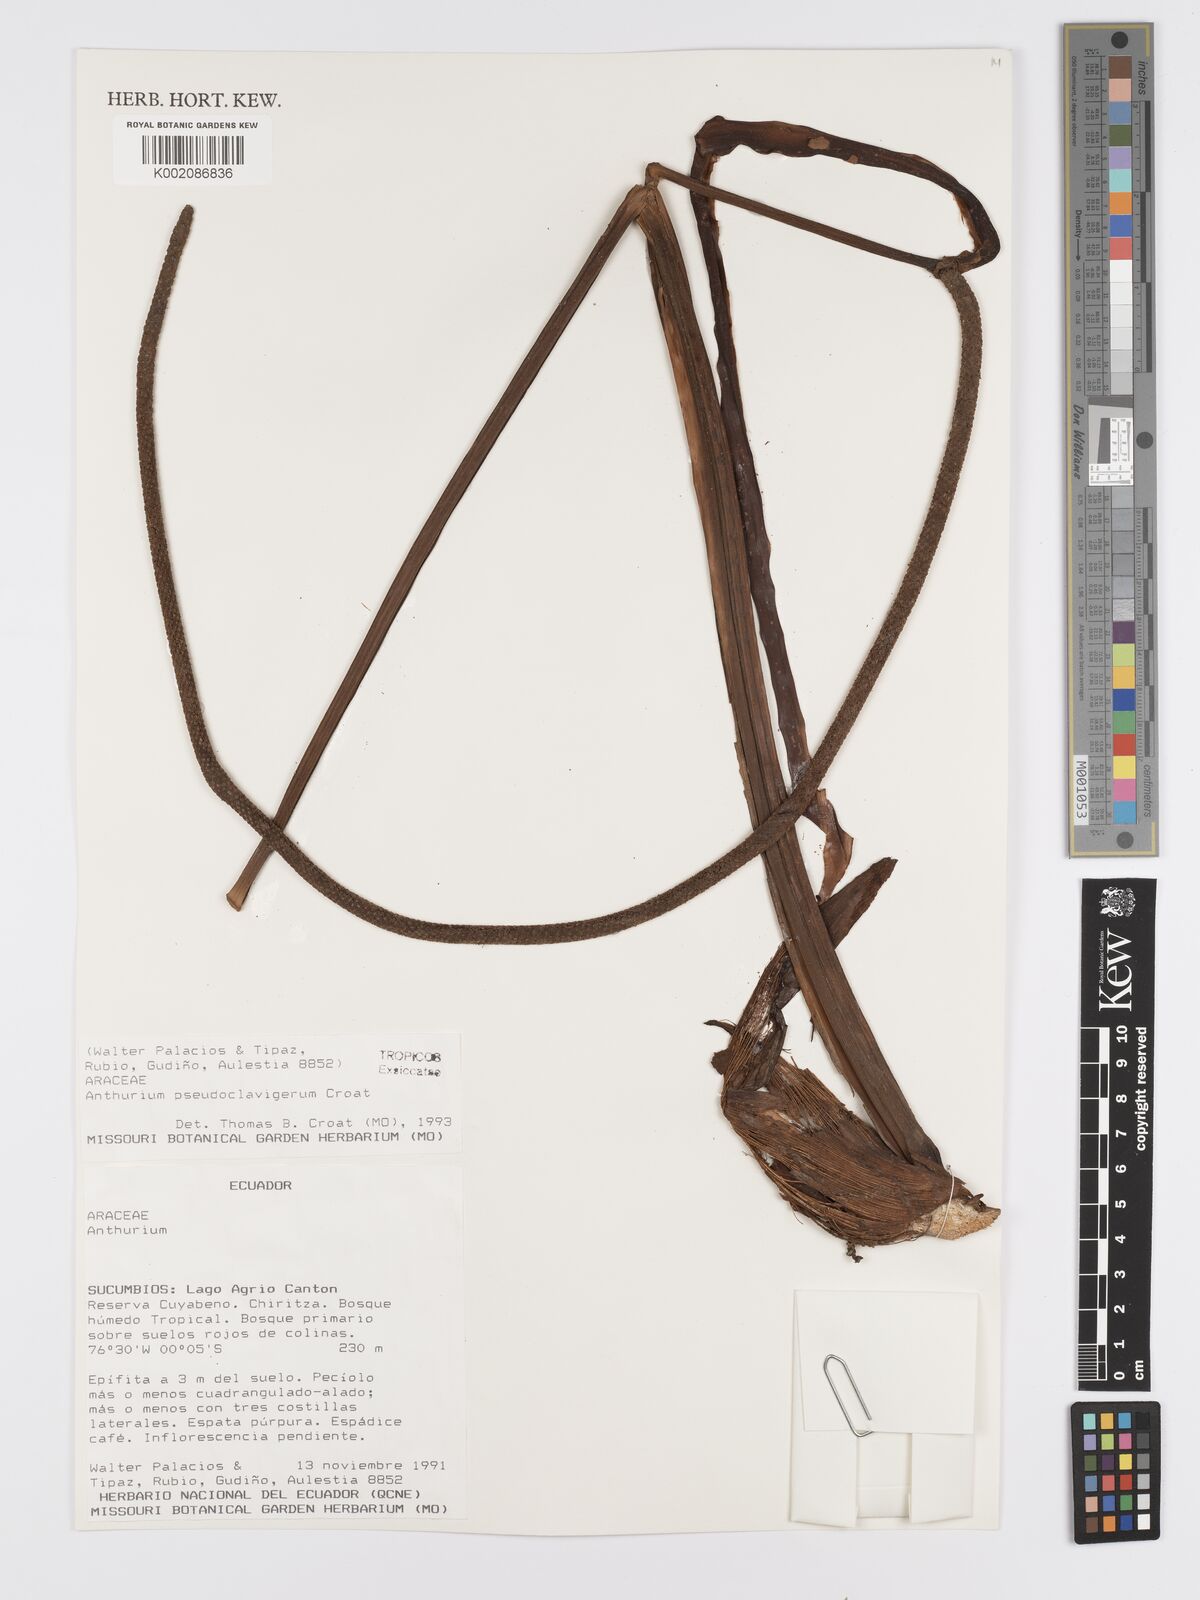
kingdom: Plantae
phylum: Tracheophyta
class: Liliopsida
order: Alismatales
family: Araceae
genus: Anthurium
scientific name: Anthurium
